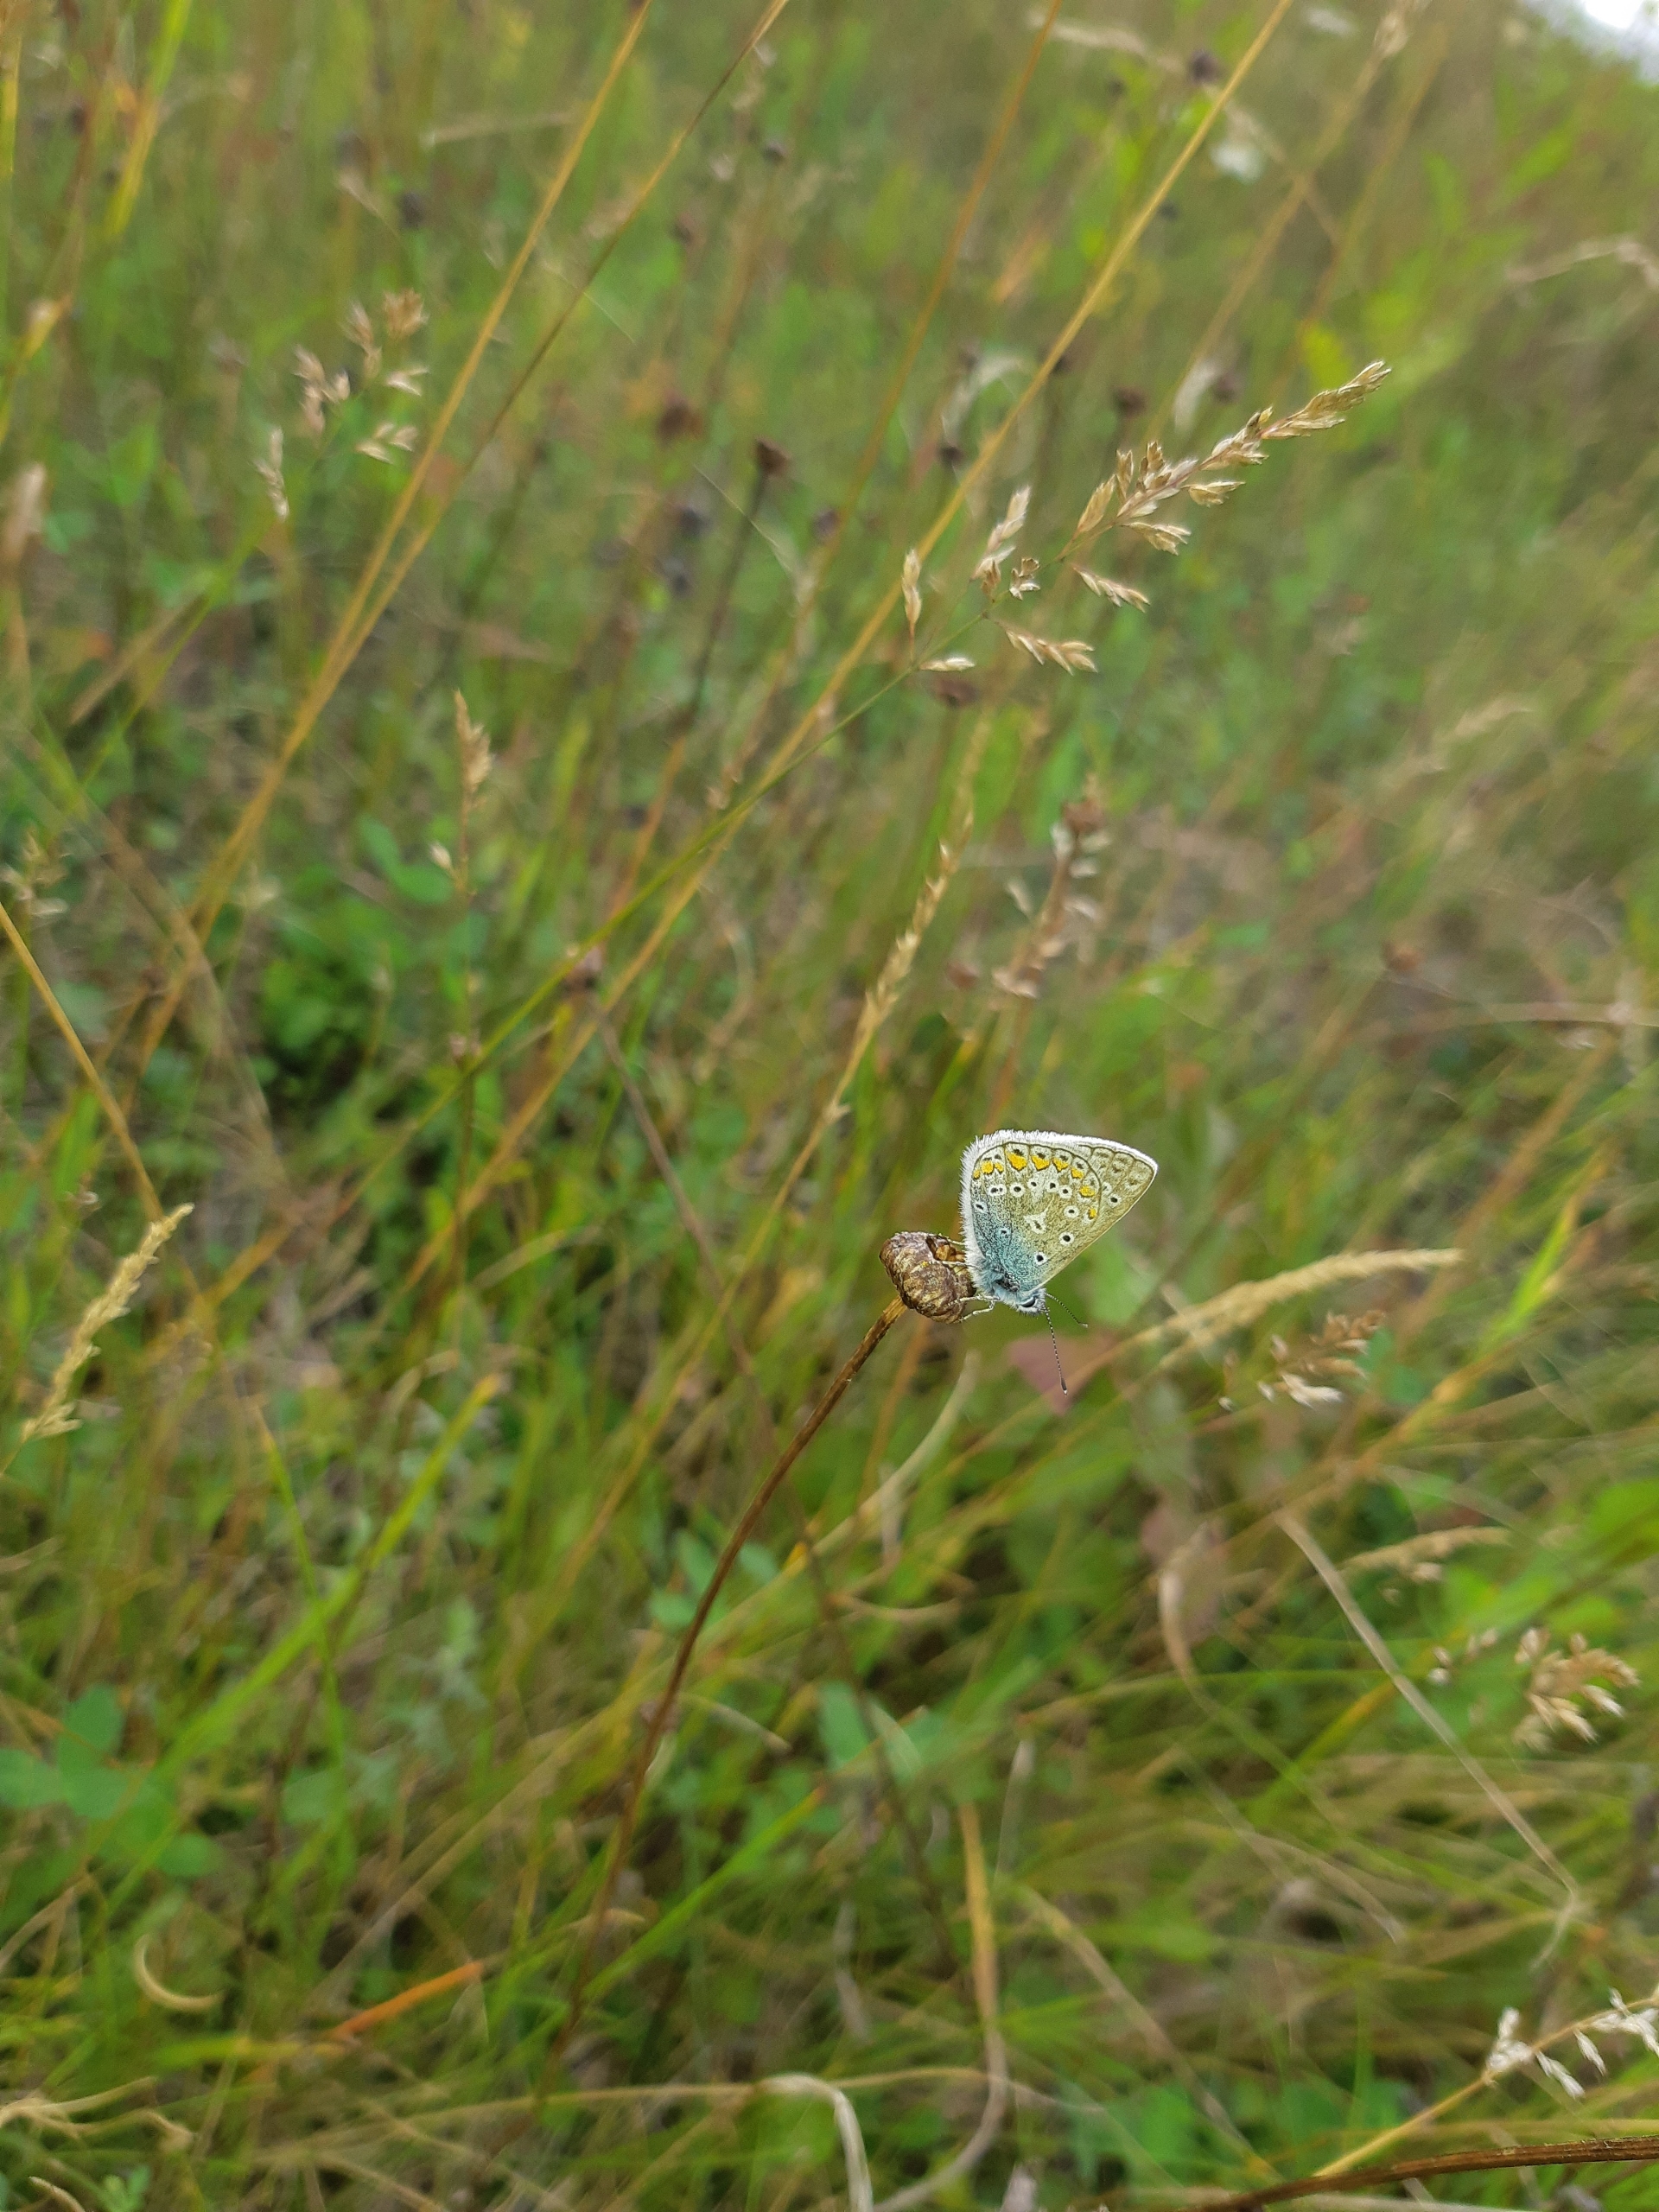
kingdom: Animalia
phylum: Arthropoda
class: Insecta
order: Lepidoptera
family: Lycaenidae
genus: Polyommatus
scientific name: Polyommatus icarus
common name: Almindelig blåfugl
